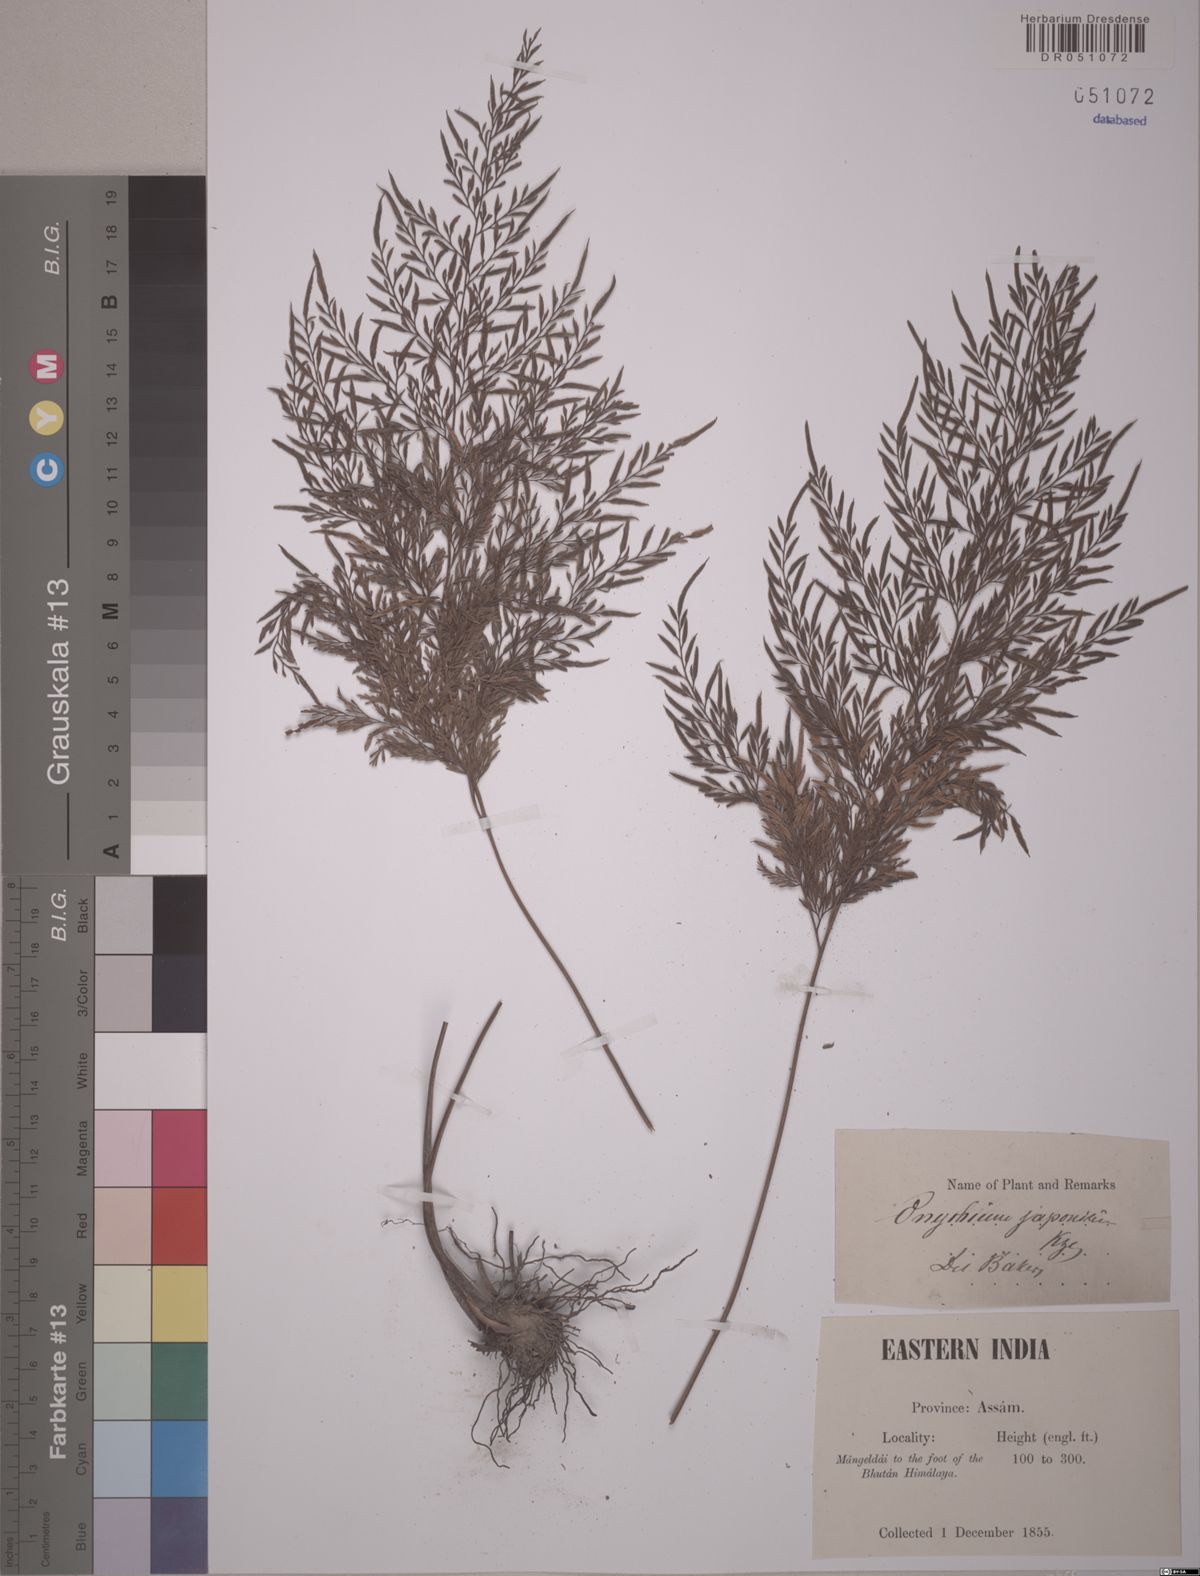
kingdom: Plantae
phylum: Tracheophyta
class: Polypodiopsida
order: Polypodiales
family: Pteridaceae
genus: Onychium
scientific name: Onychium japonicum
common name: Carrot fern
